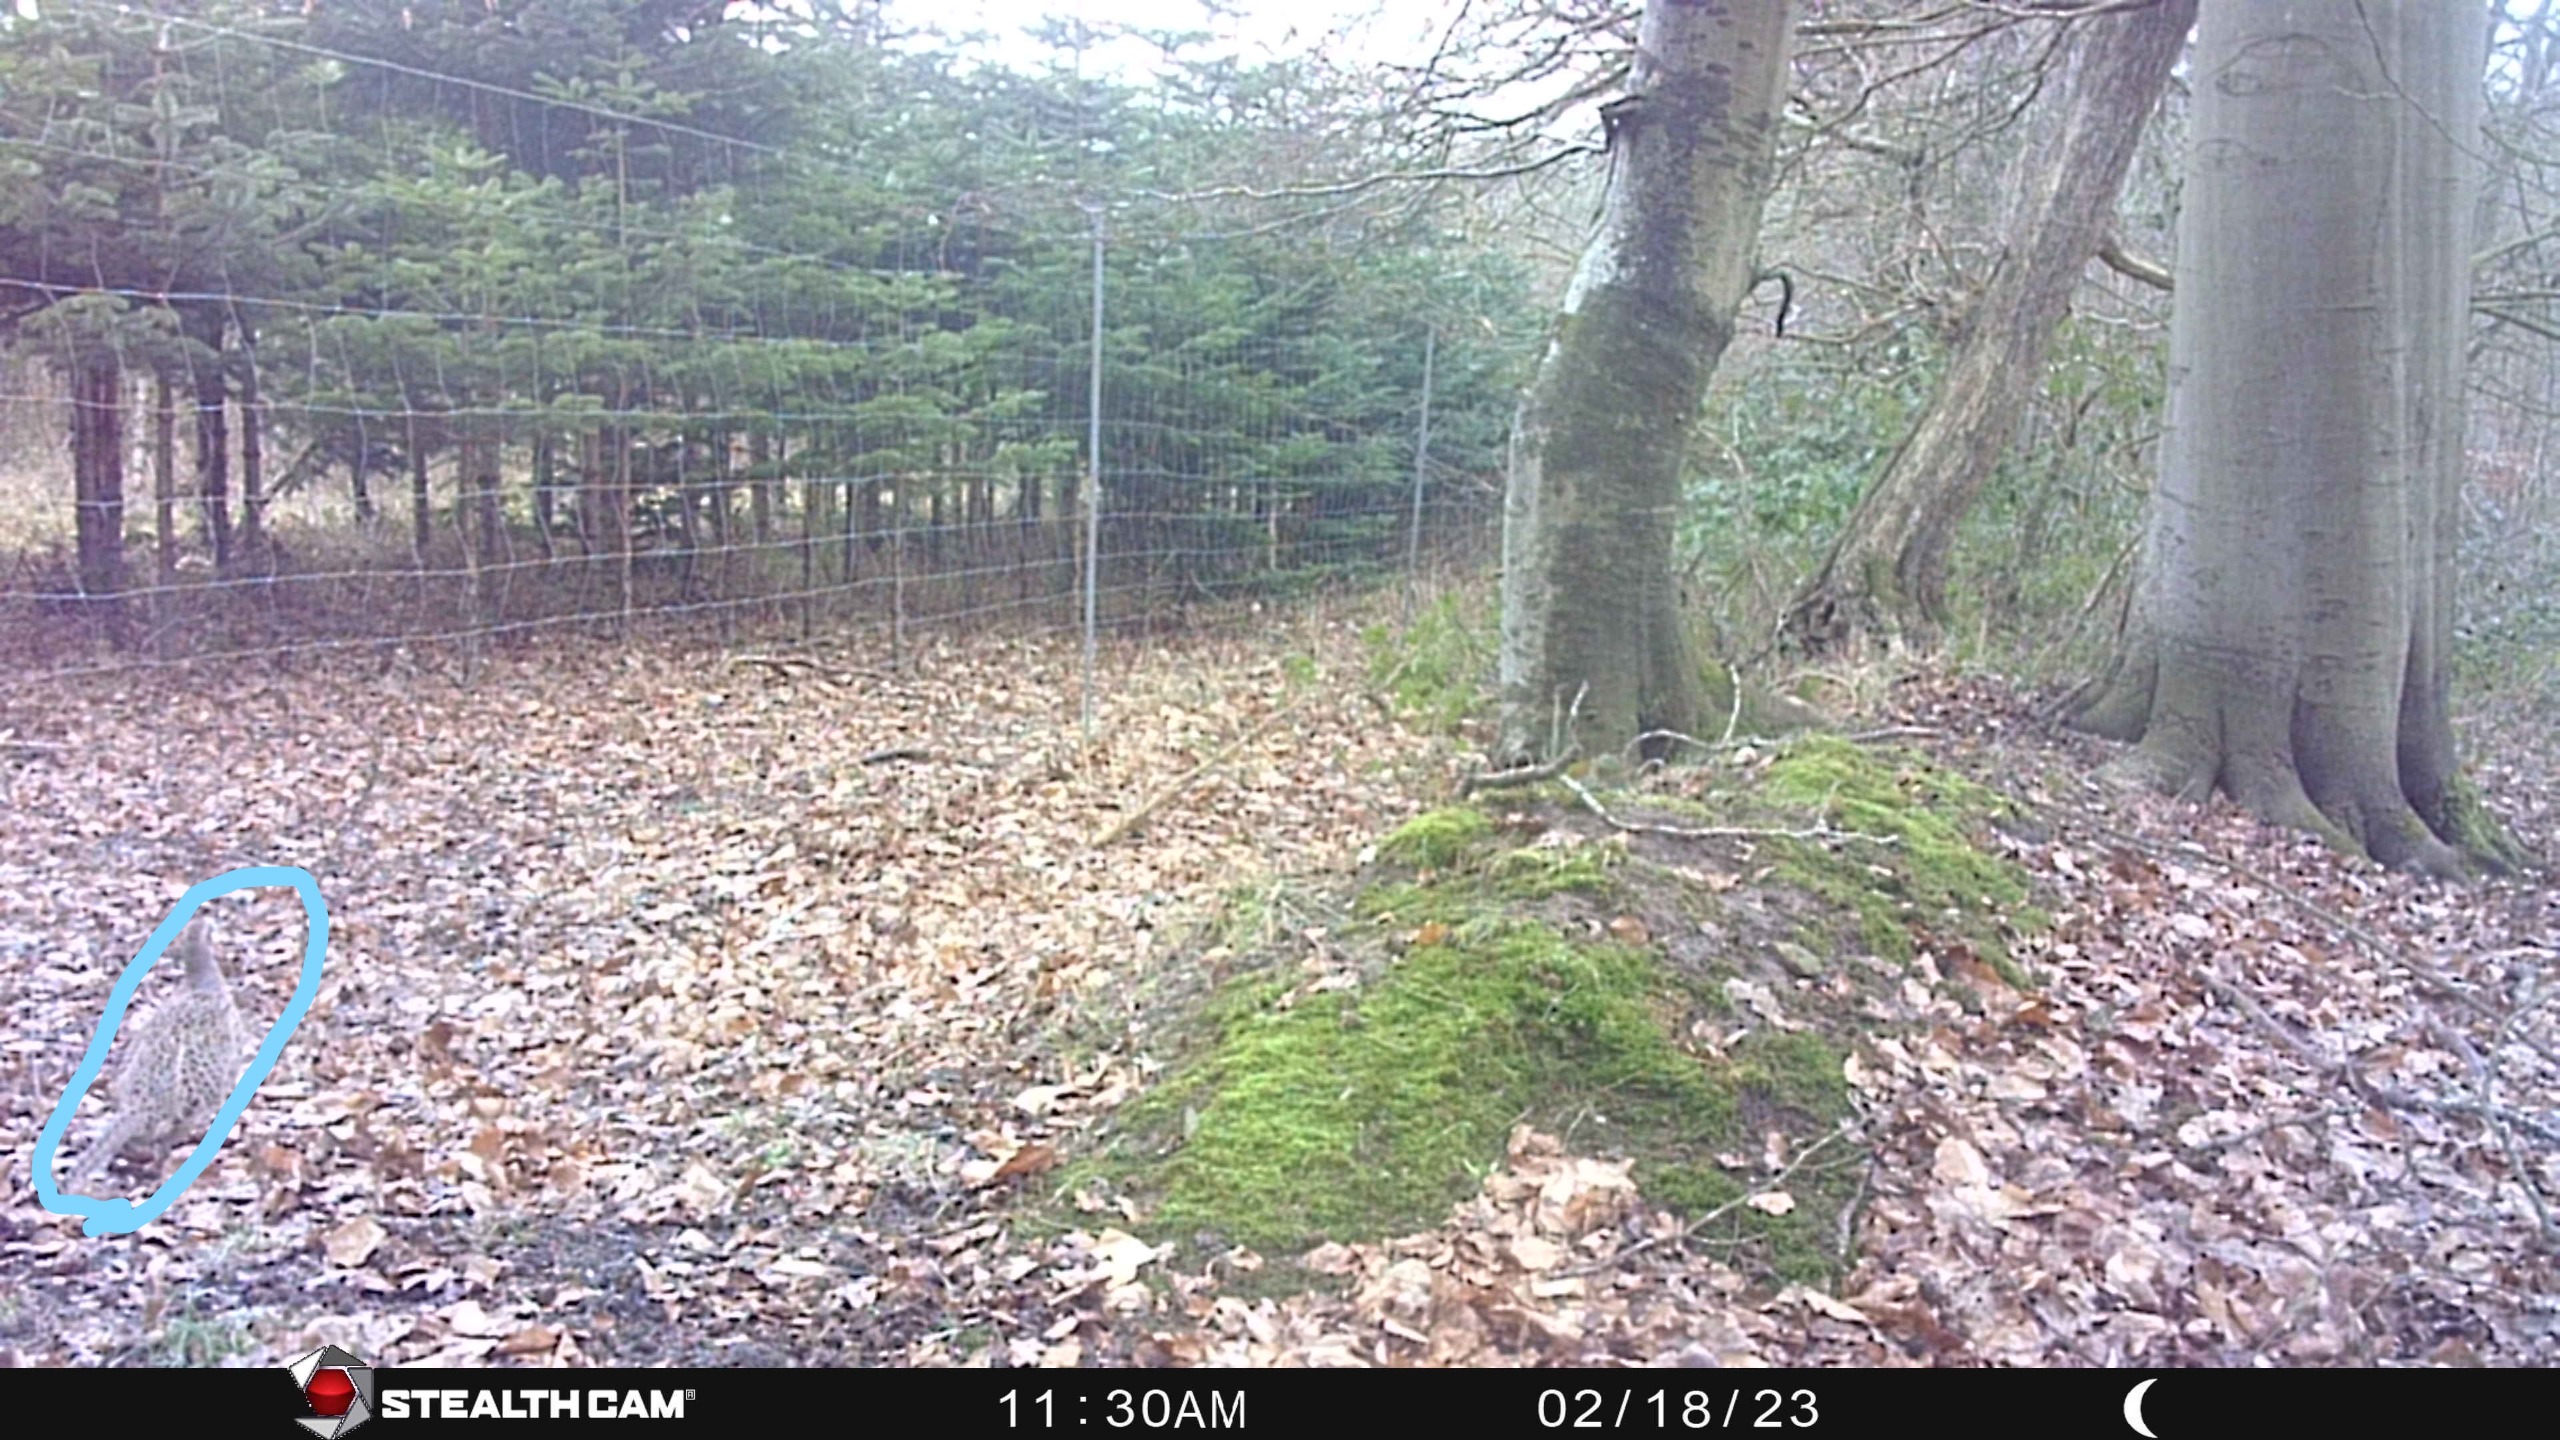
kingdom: Animalia
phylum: Chordata
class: Aves
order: Galliformes
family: Phasianidae
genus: Phasianus
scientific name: Phasianus colchicus
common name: Fasan
